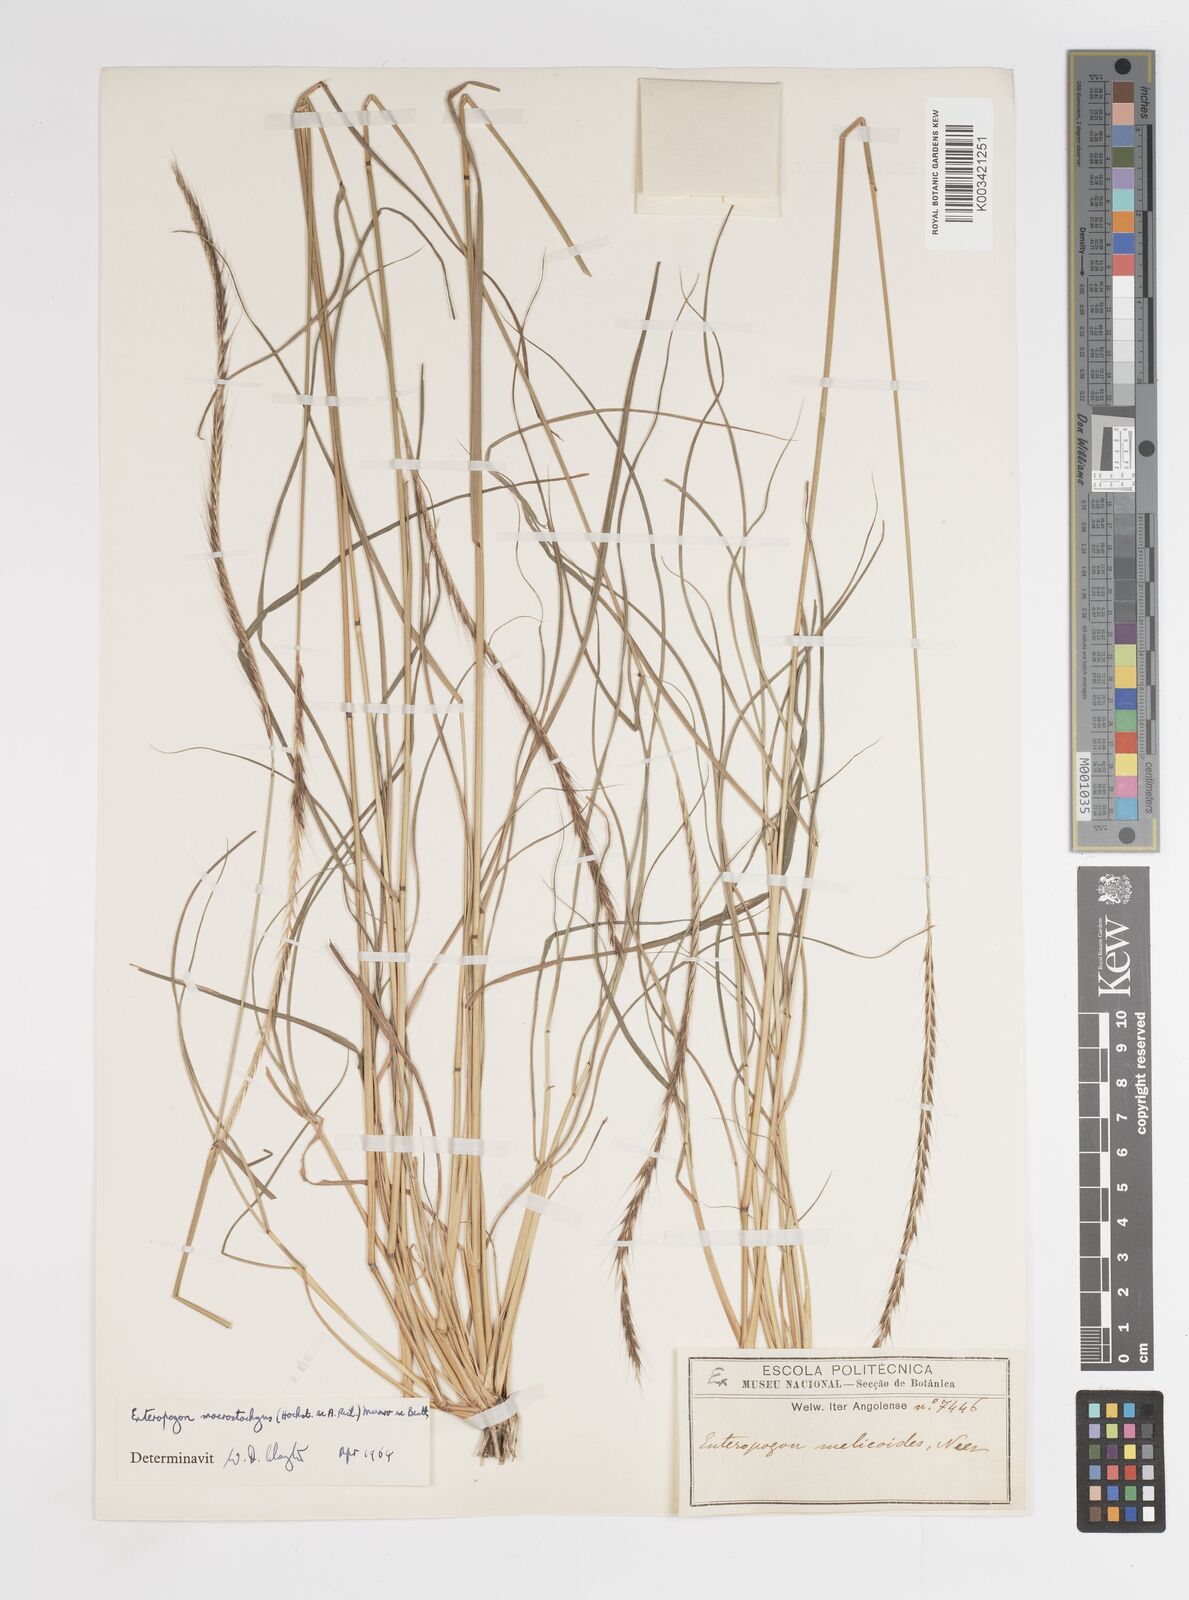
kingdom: Plantae
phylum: Tracheophyta
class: Liliopsida
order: Poales
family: Poaceae
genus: Enteropogon
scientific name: Enteropogon macrostachyus
